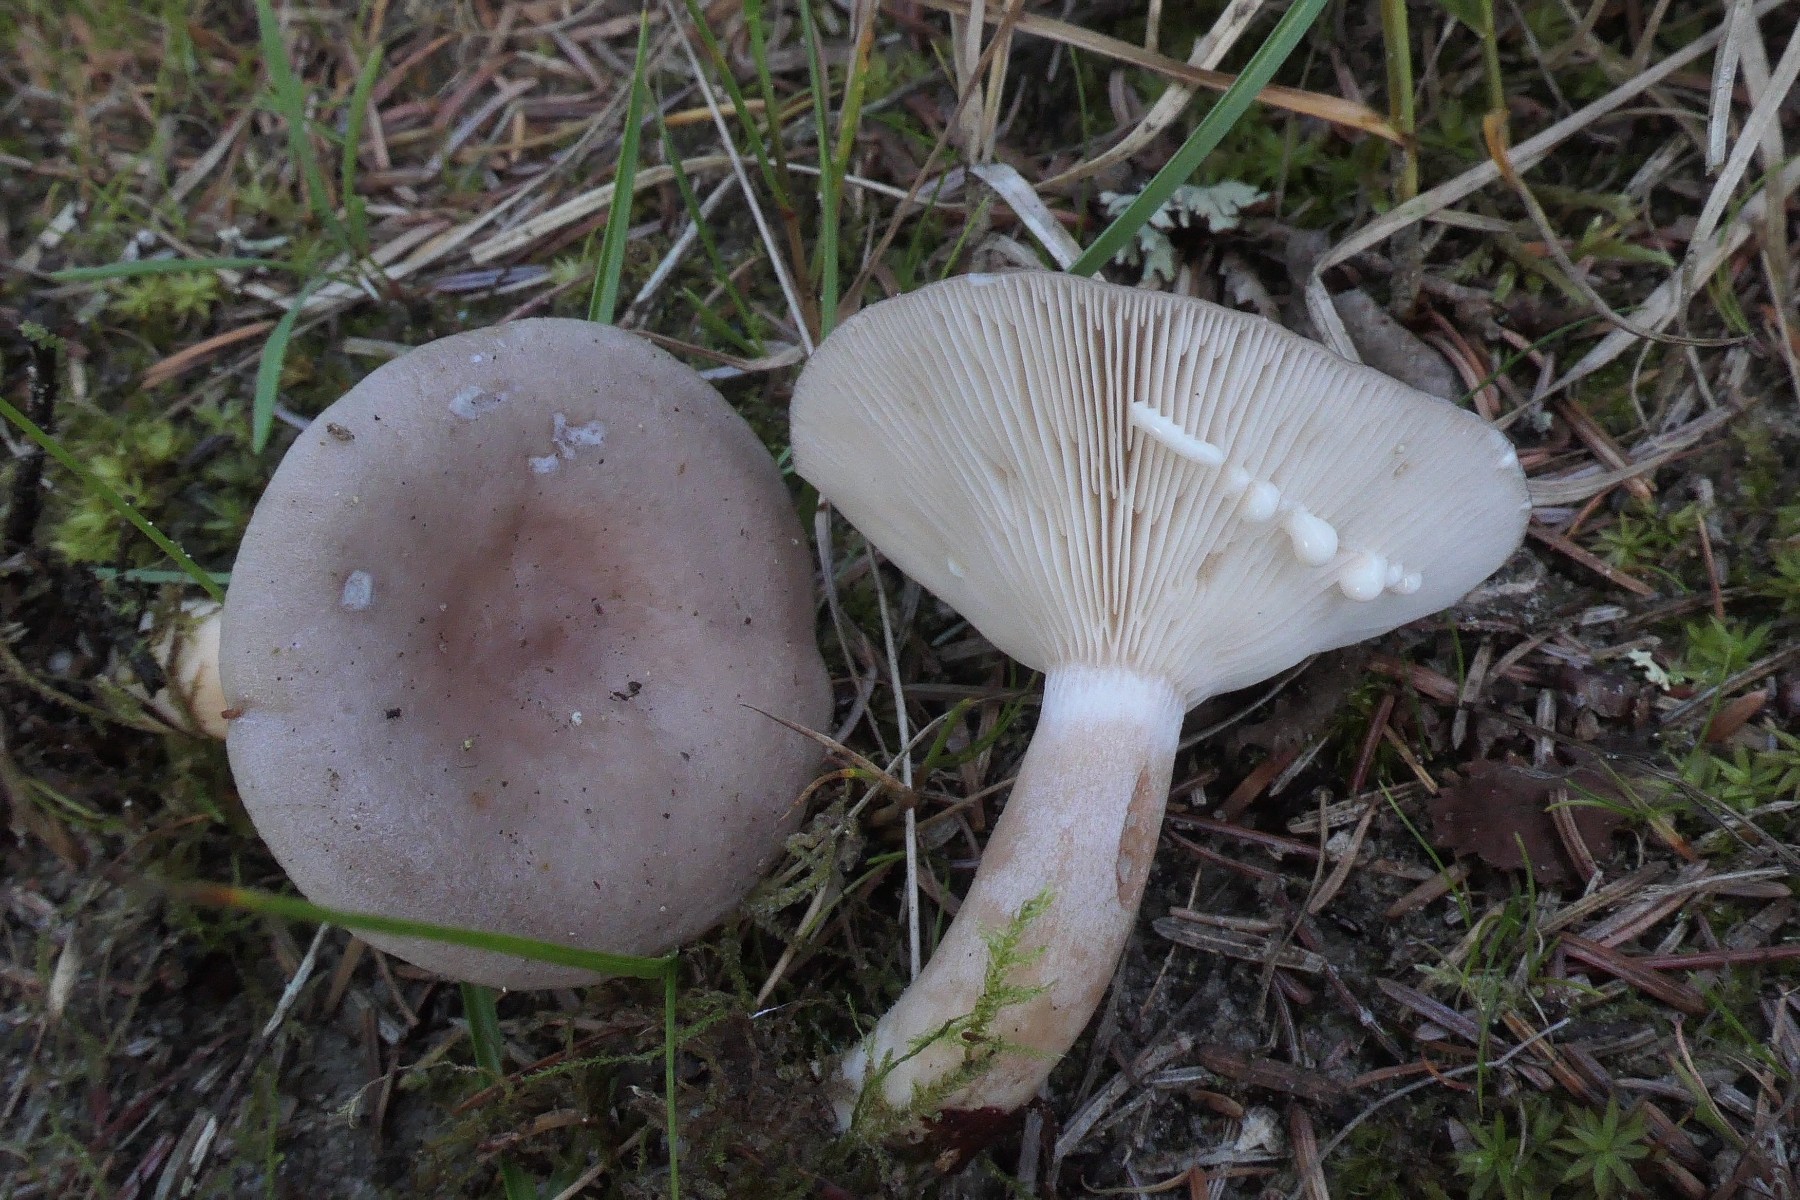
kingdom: Fungi
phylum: Basidiomycota
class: Agaricomycetes
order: Russulales
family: Russulaceae
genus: Lactarius
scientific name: Lactarius vietus
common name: violetgrå mælkehat
